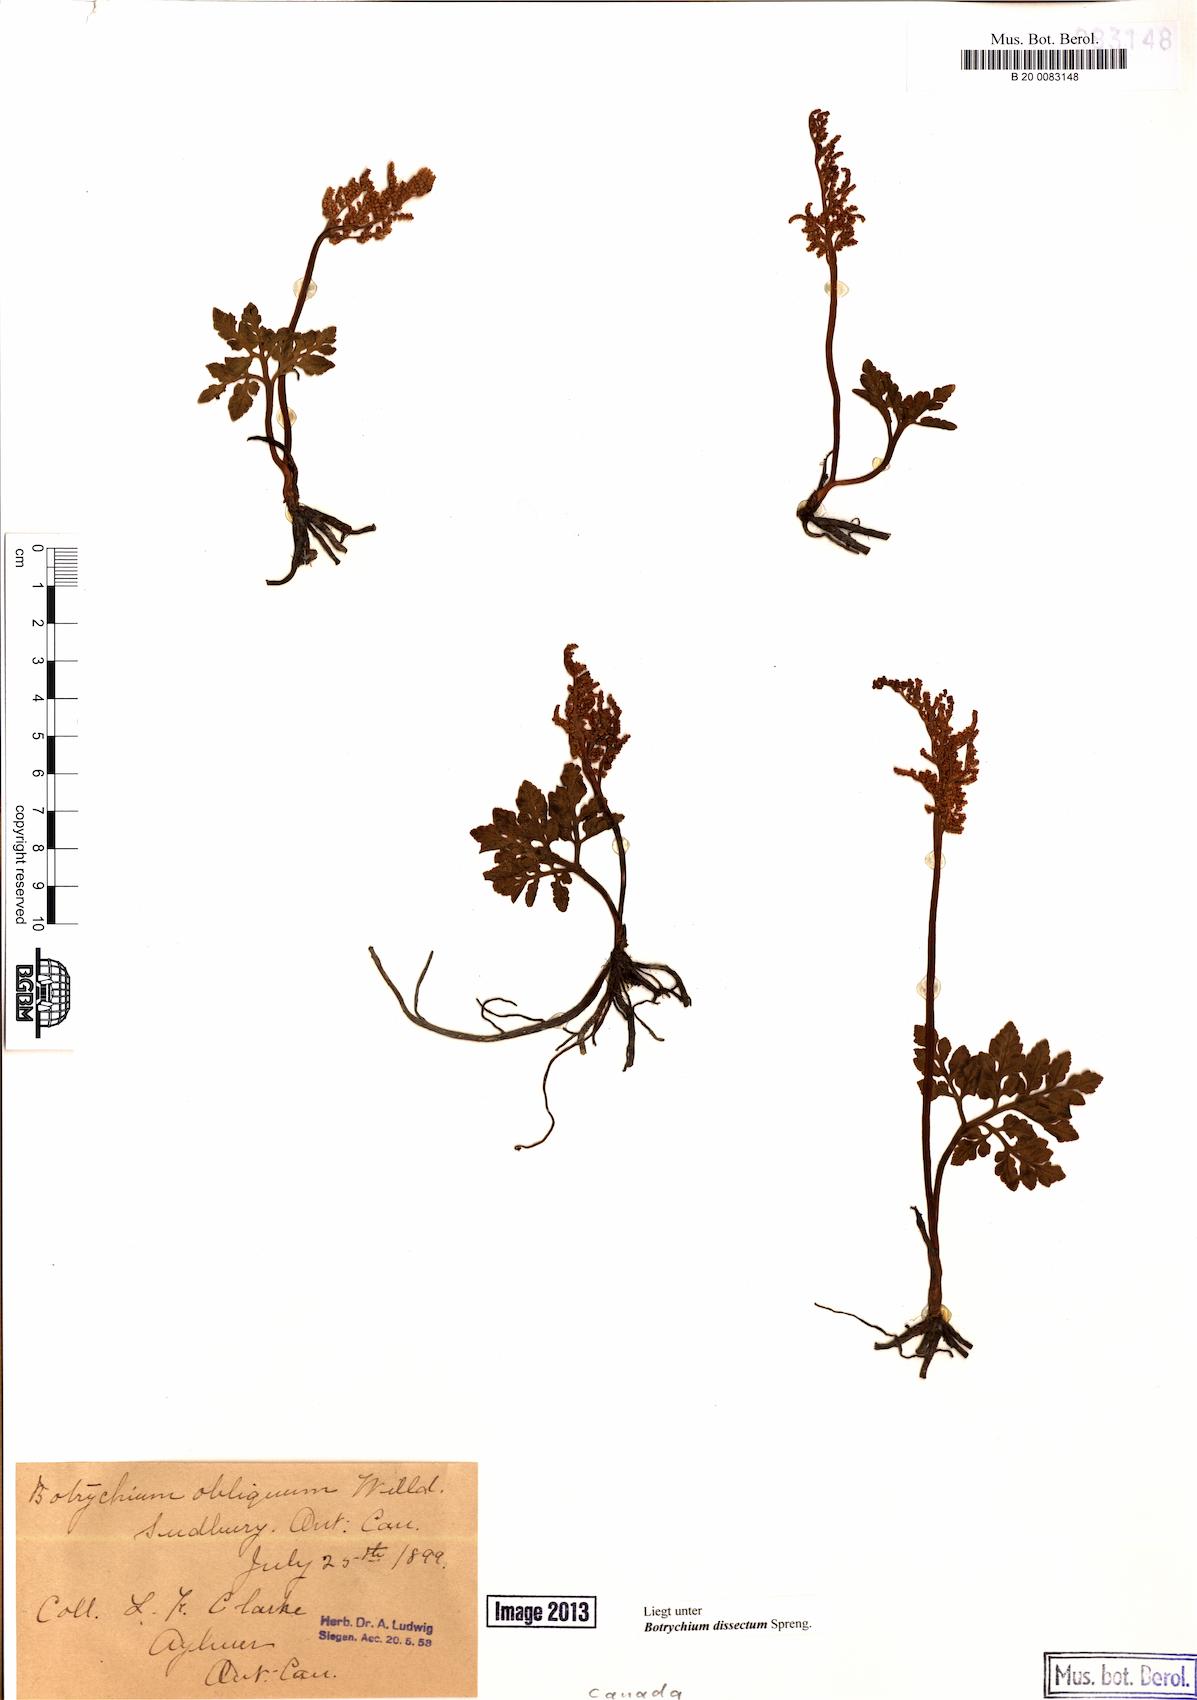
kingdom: Plantae
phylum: Tracheophyta
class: Polypodiopsida
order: Ophioglossales
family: Ophioglossaceae
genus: Sceptridium
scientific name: Sceptridium dissectum
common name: Cut-leaved grapefern
